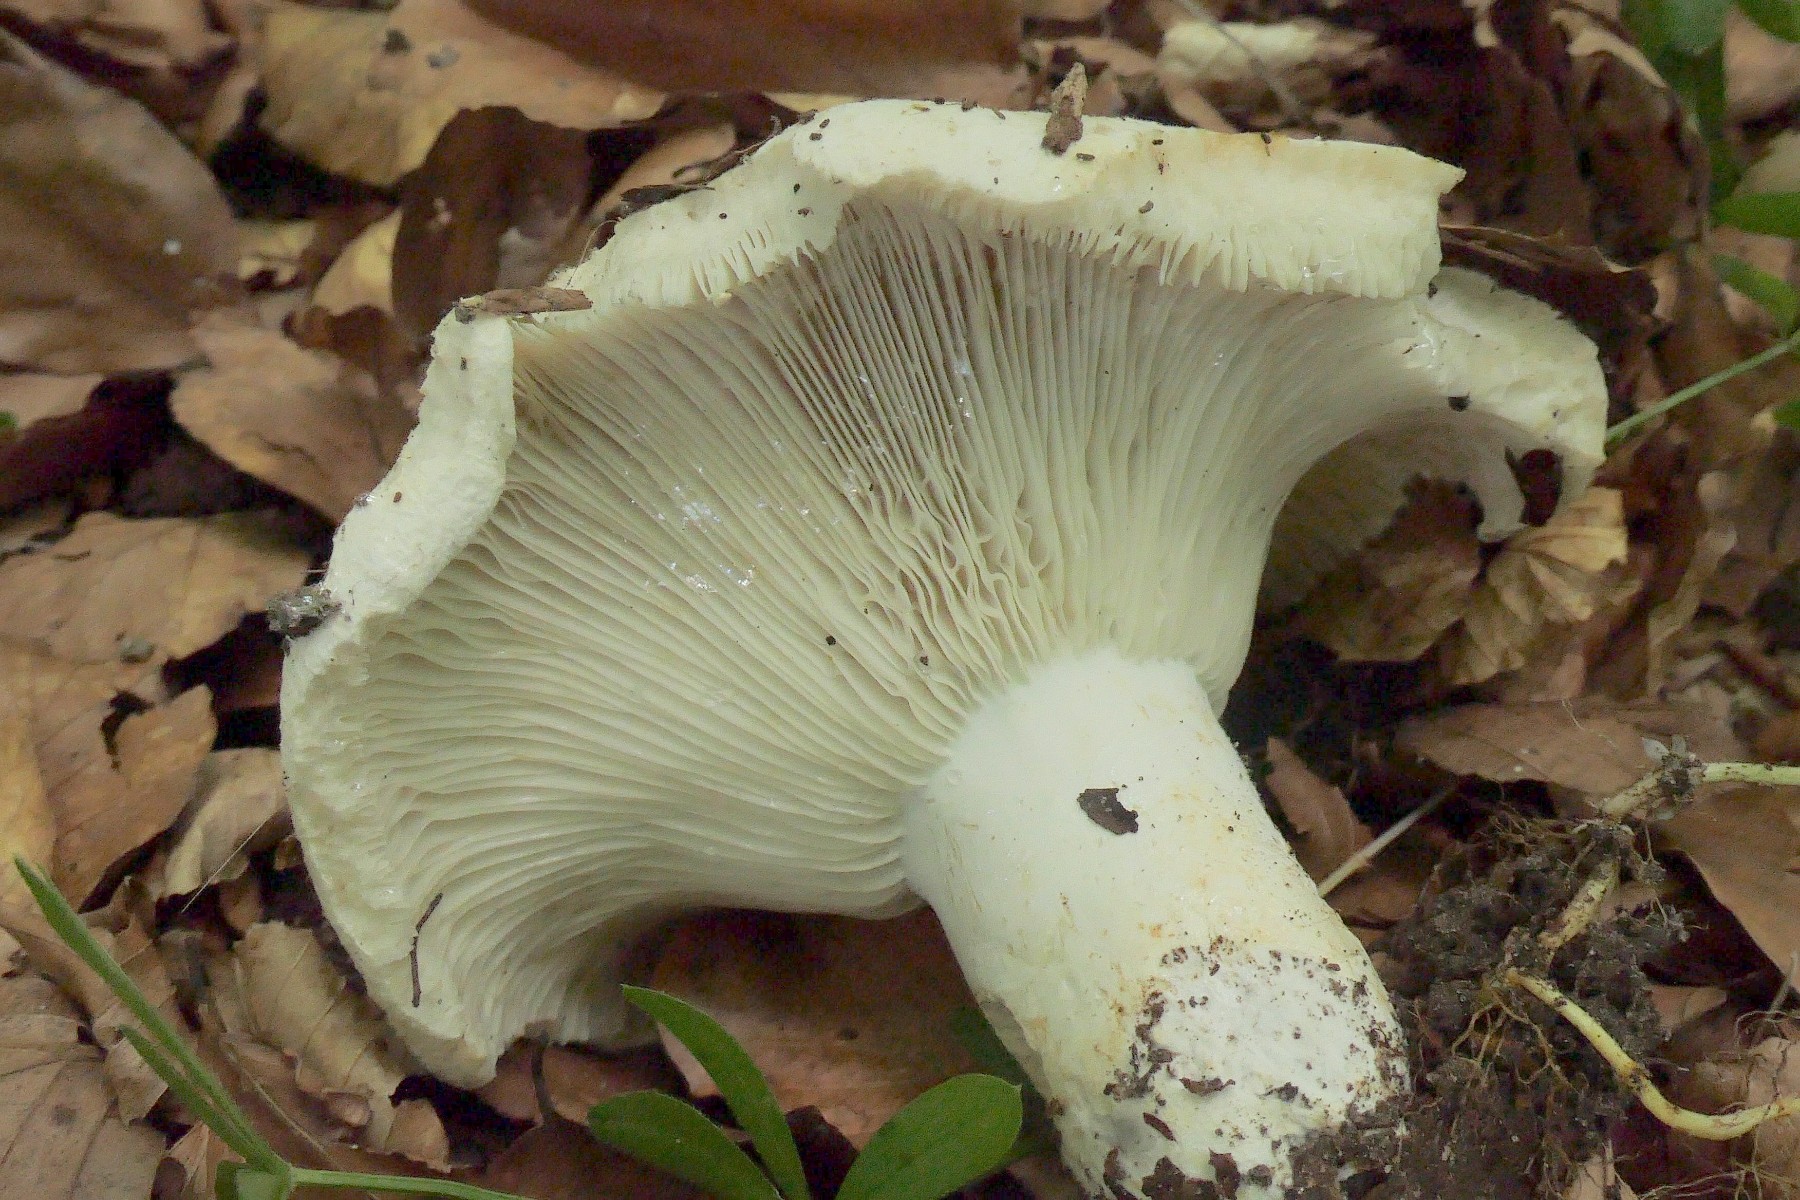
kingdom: Fungi
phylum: Basidiomycota
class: Agaricomycetes
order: Russulales
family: Russulaceae
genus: Russula
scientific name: Russula chloroides
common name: grønhalset tragt-skørhat
